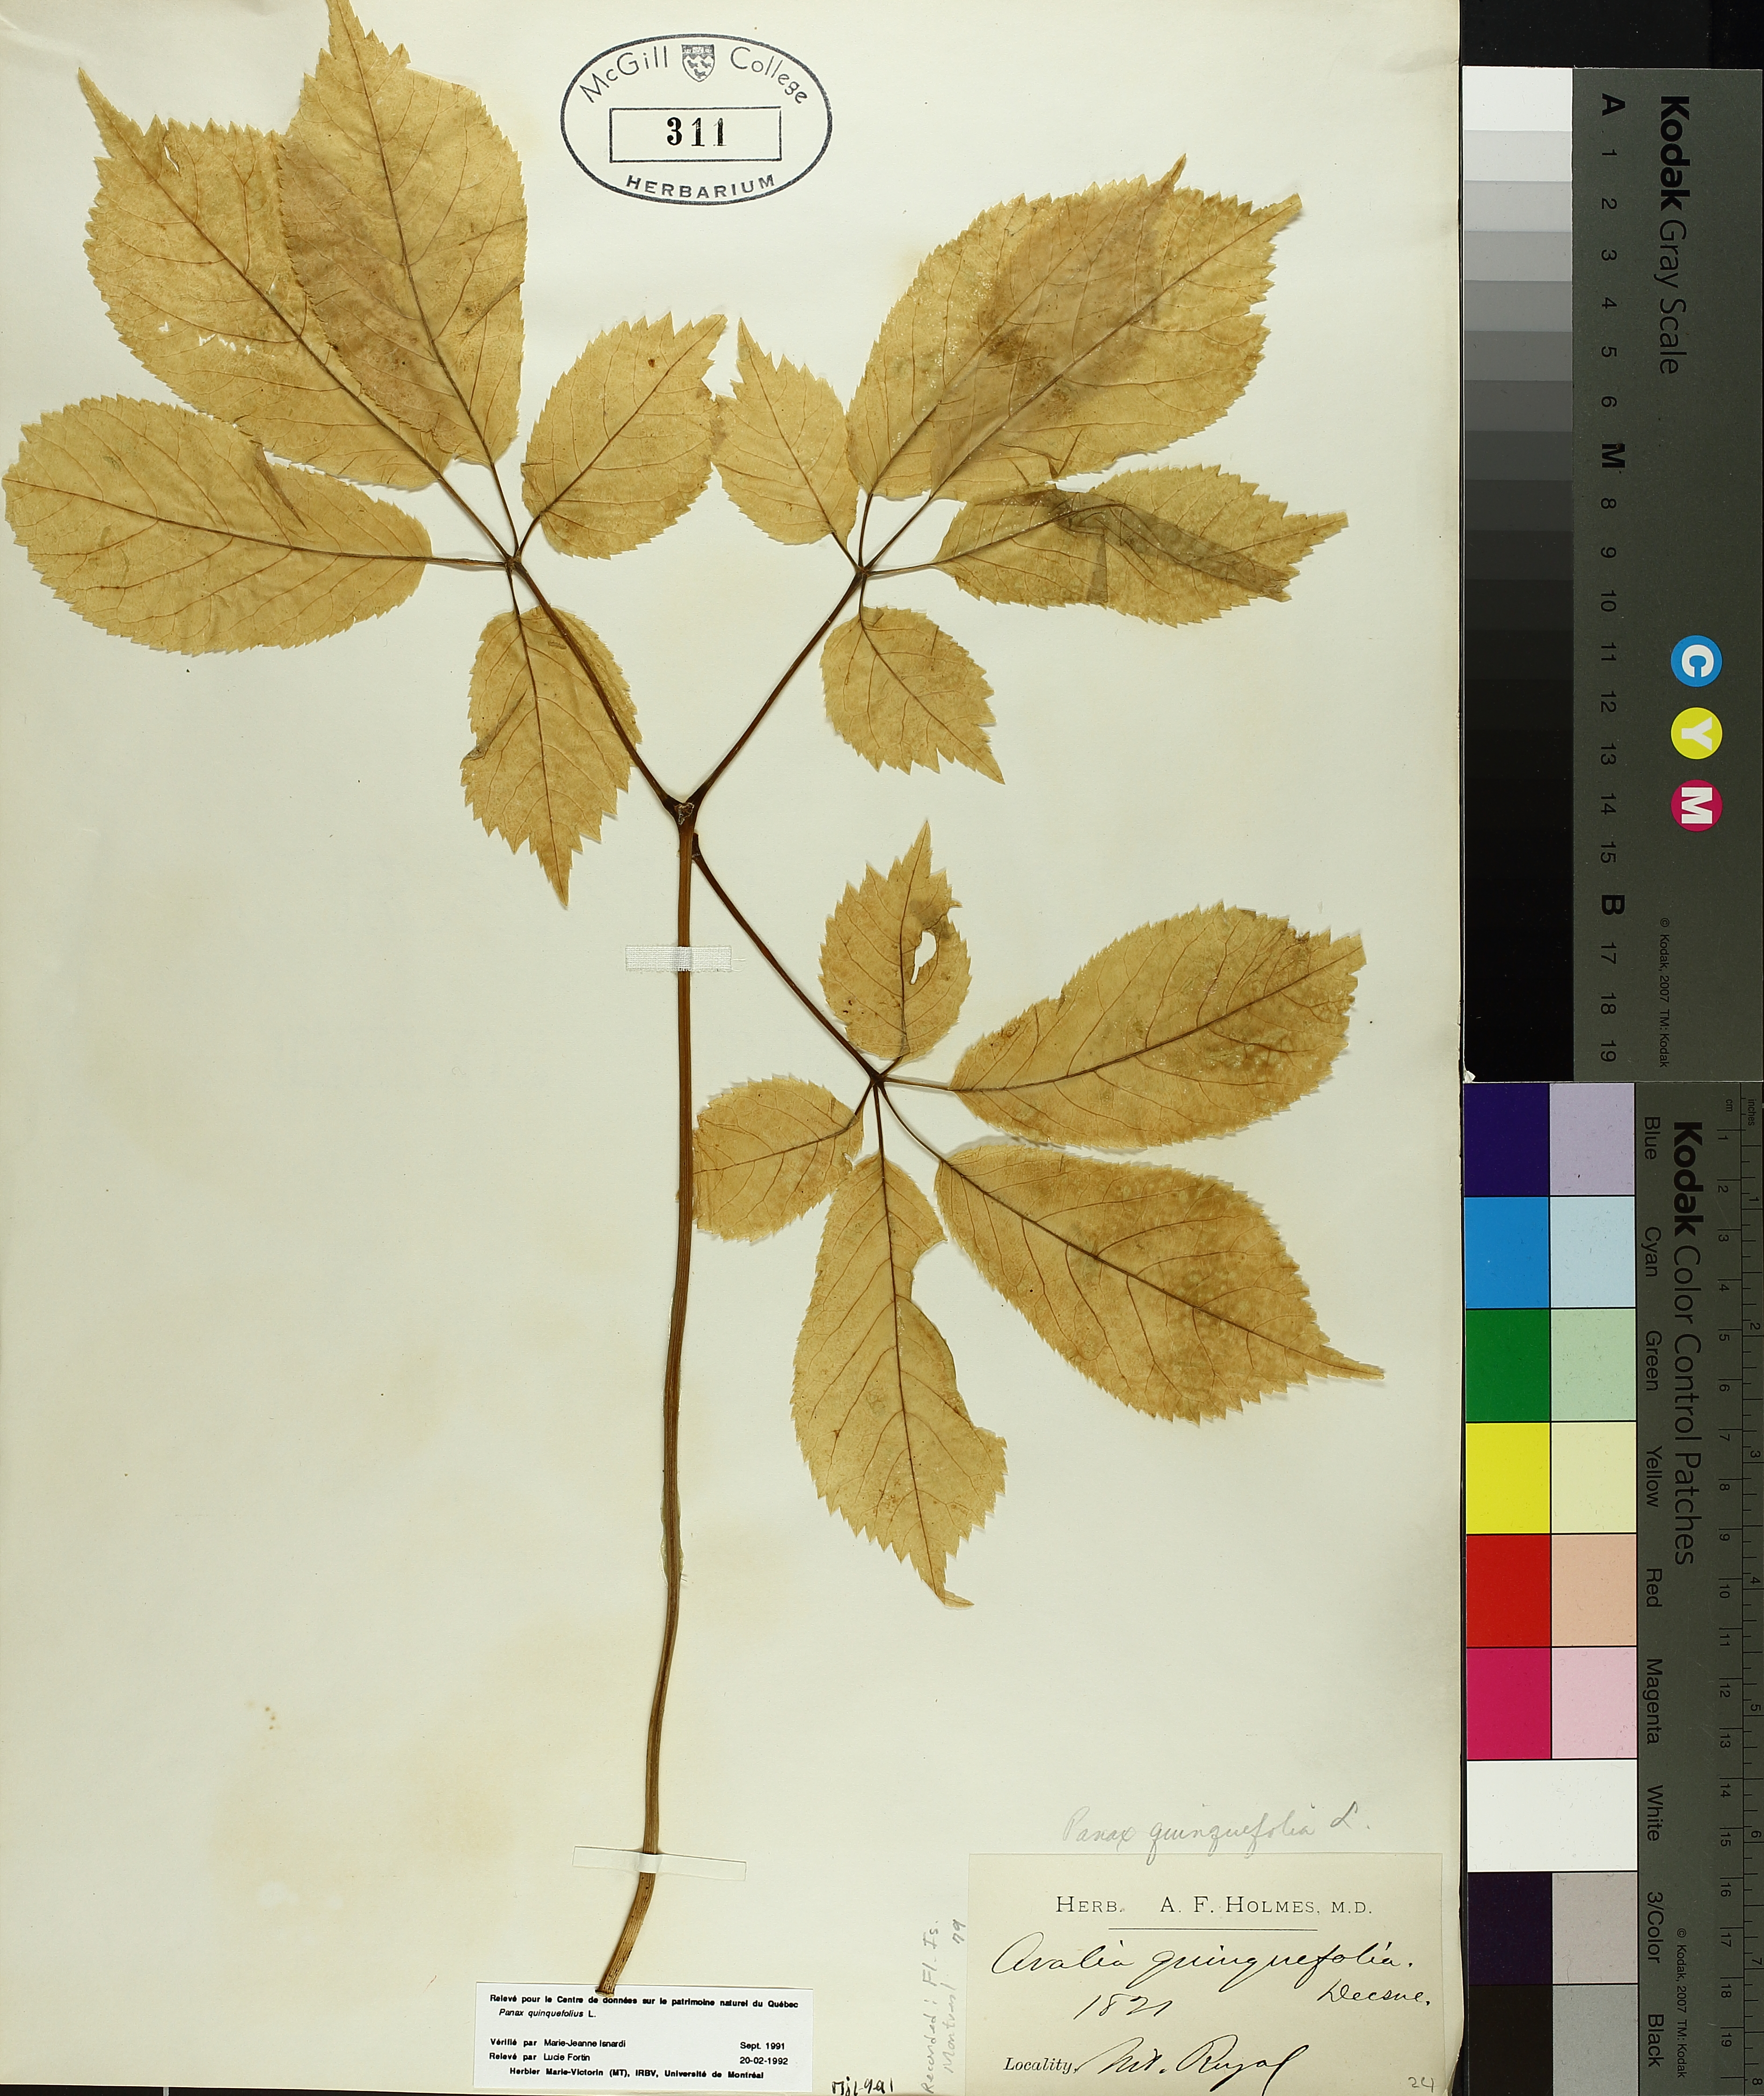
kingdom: Plantae
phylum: Tracheophyta
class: Magnoliopsida
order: Apiales
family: Araliaceae
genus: Panax
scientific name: Panax quinquefolius
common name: American ginseng
